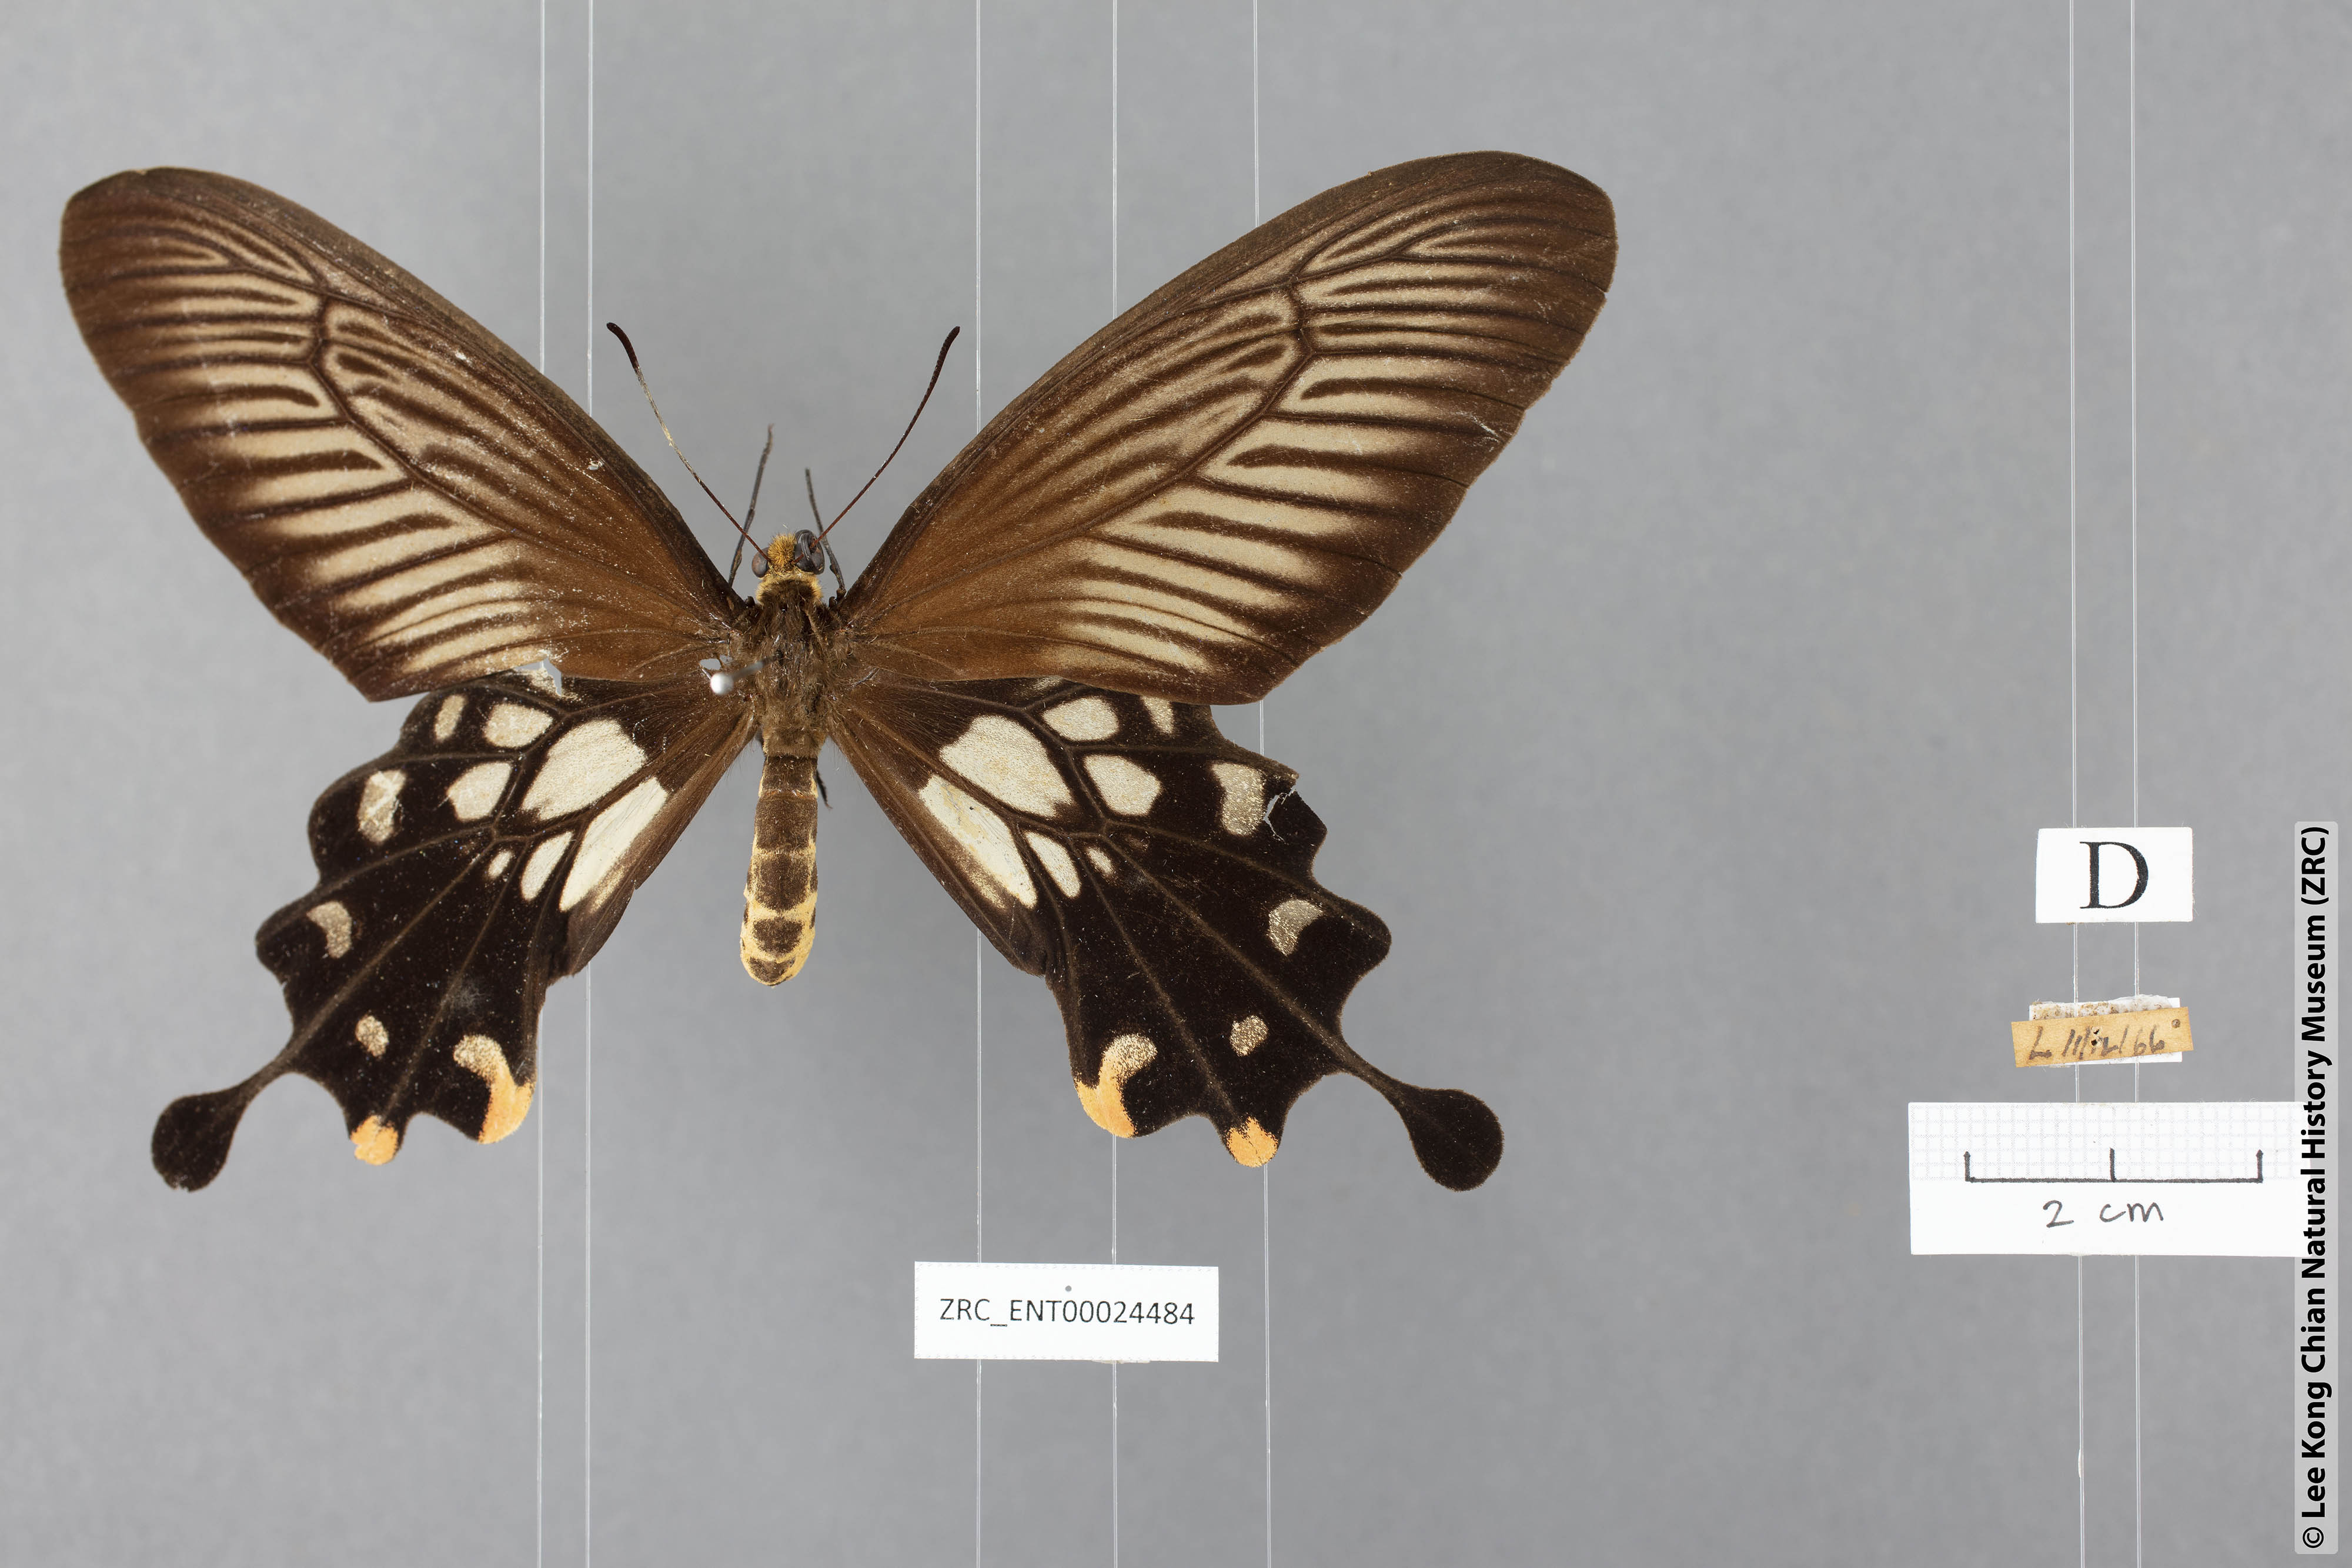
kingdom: Animalia
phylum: Arthropoda
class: Insecta
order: Lepidoptera
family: Papilionidae
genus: Losaria
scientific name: Losaria coon
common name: Common clubtail
